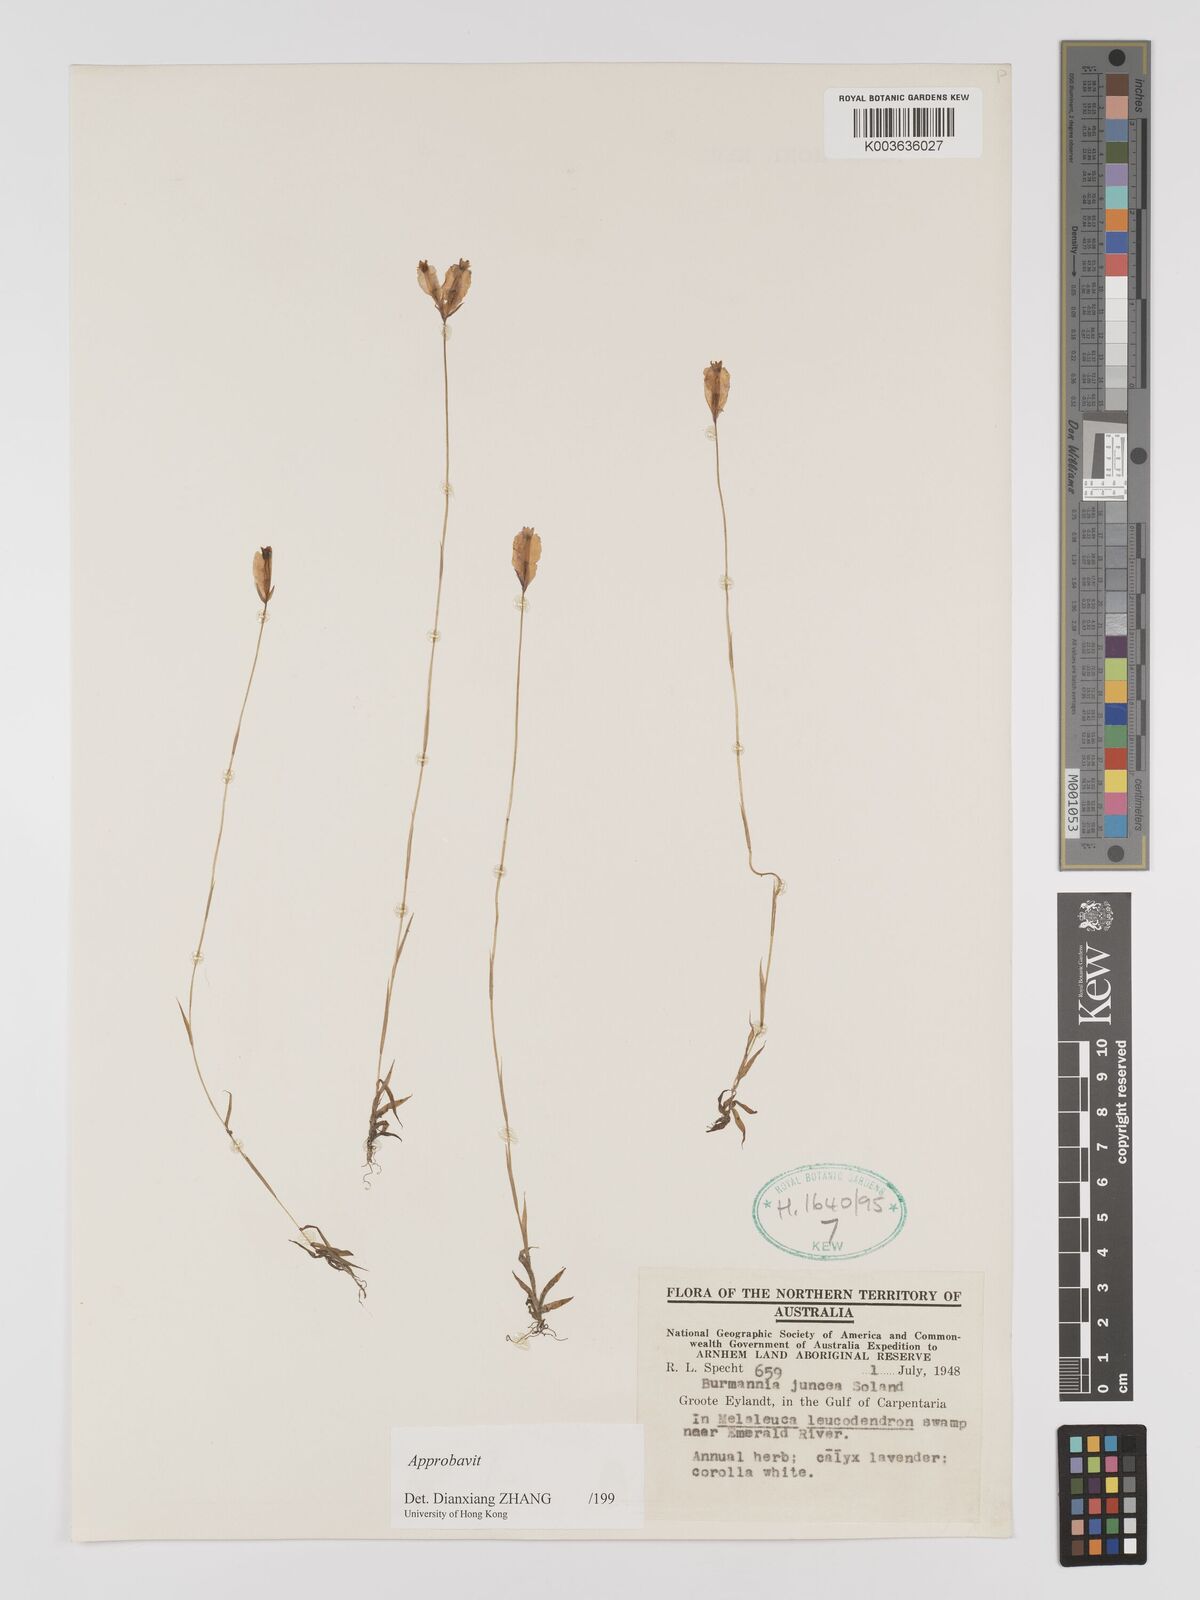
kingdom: Plantae
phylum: Tracheophyta
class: Liliopsida
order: Dioscoreales
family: Burmanniaceae
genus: Burmannia
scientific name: Burmannia juncea
